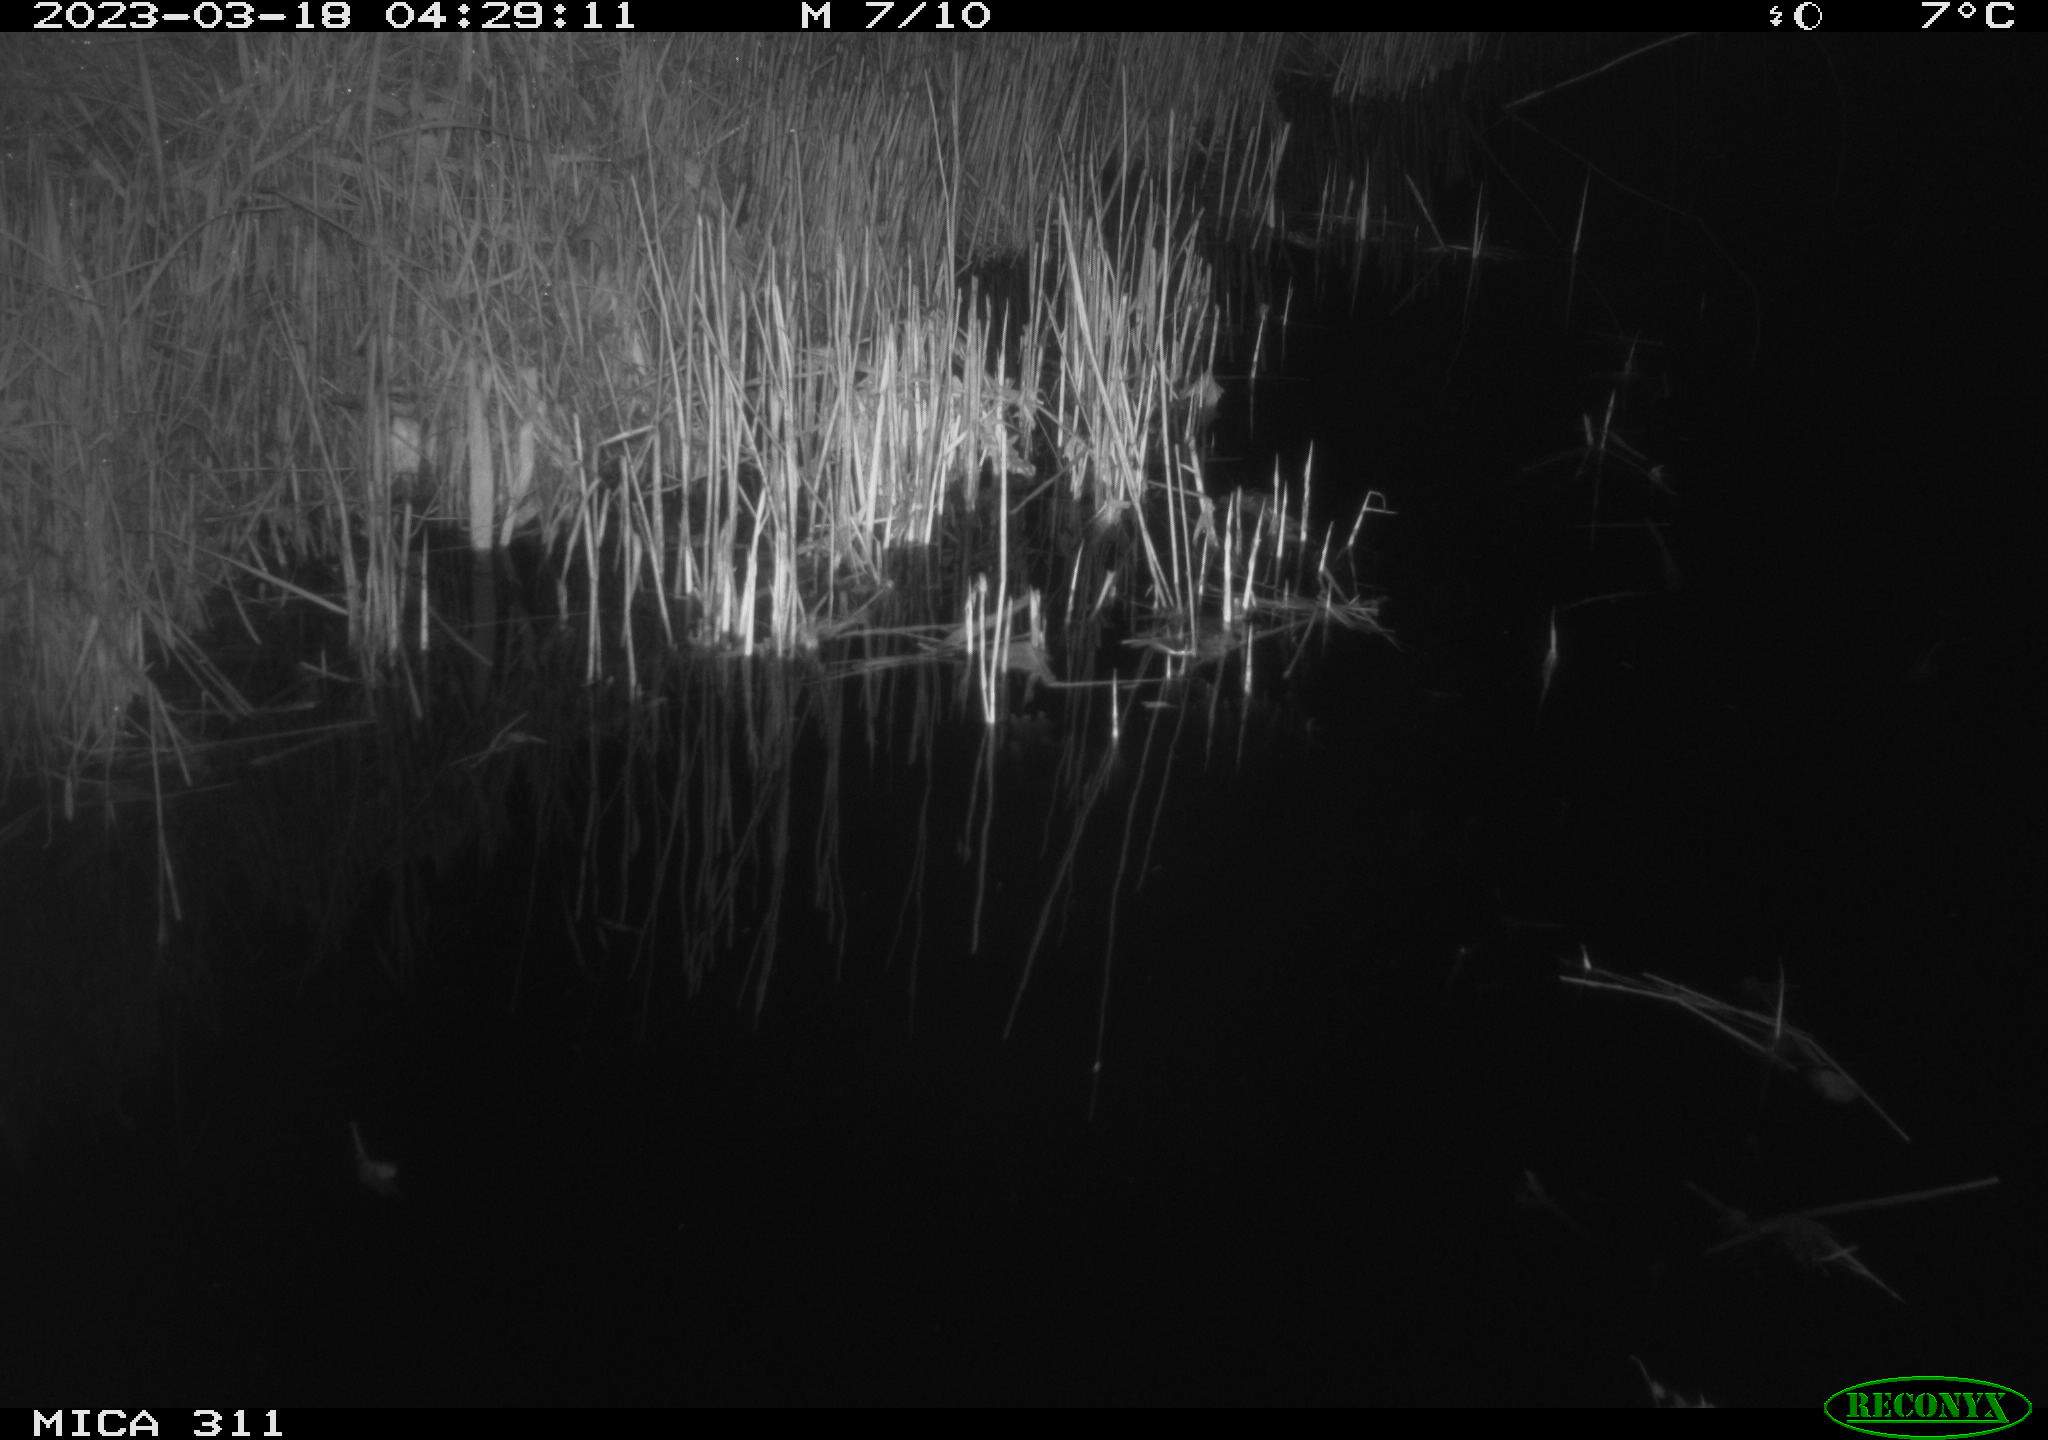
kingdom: Animalia
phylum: Chordata
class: Mammalia
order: Rodentia
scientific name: Rodentia
